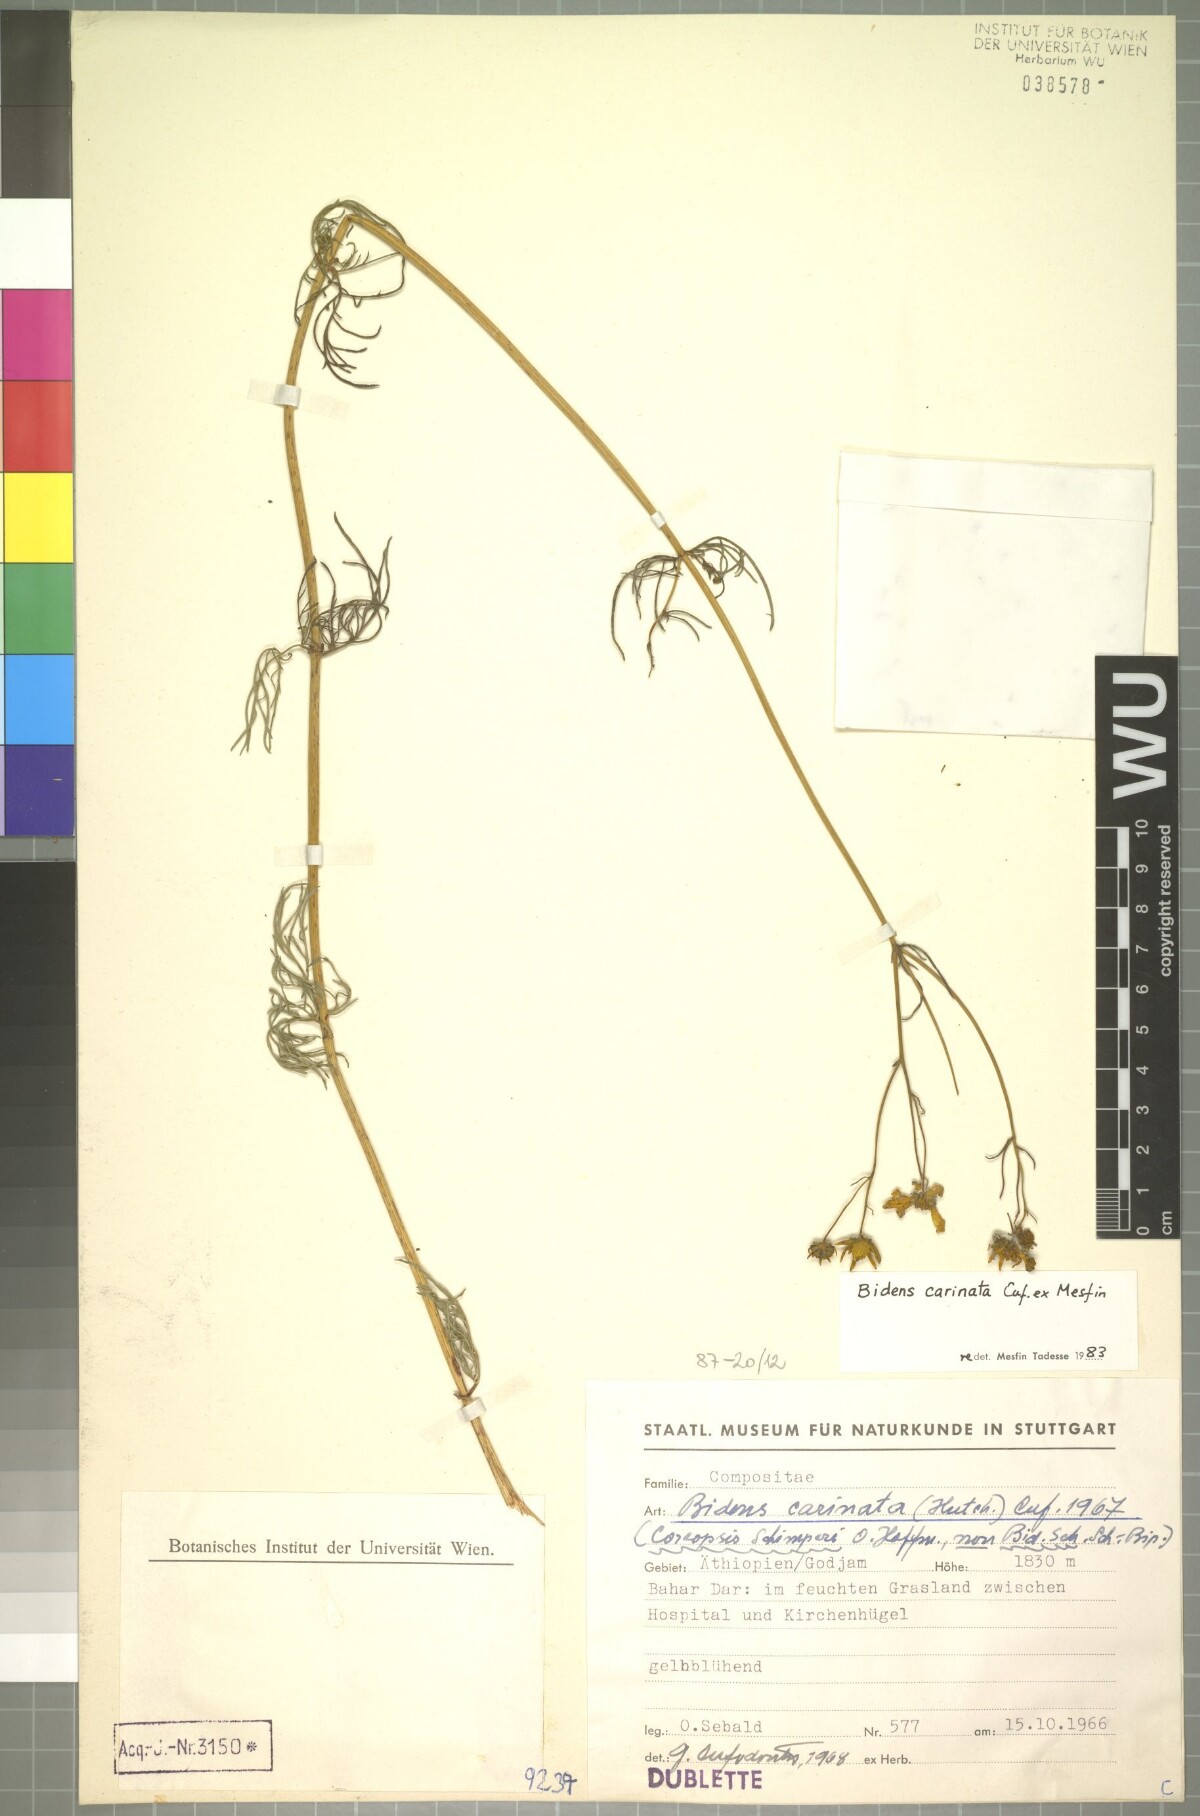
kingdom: Plantae
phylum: Tracheophyta
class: Magnoliopsida
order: Asterales
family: Asteraceae
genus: Bidens
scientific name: Bidens carinata
